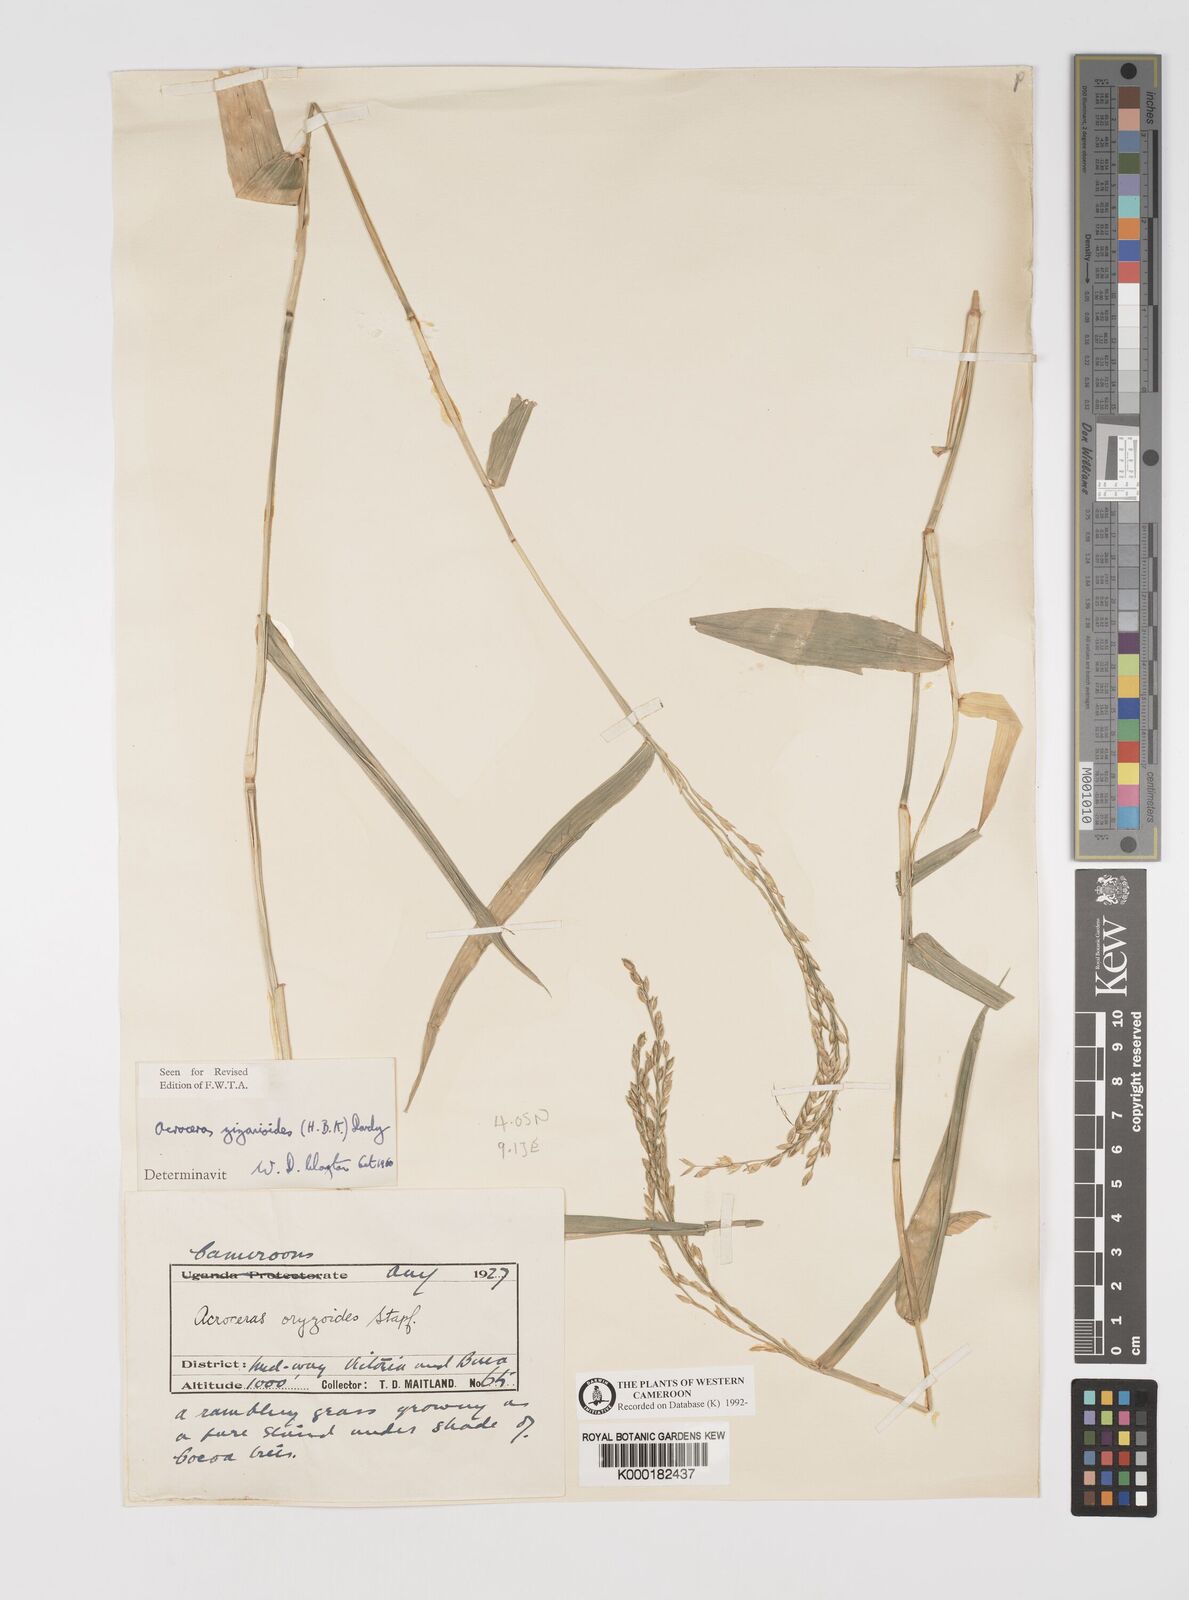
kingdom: Plantae
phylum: Tracheophyta
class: Liliopsida
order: Poales
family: Poaceae
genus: Acroceras
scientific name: Acroceras zizanioides
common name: Oat grass
